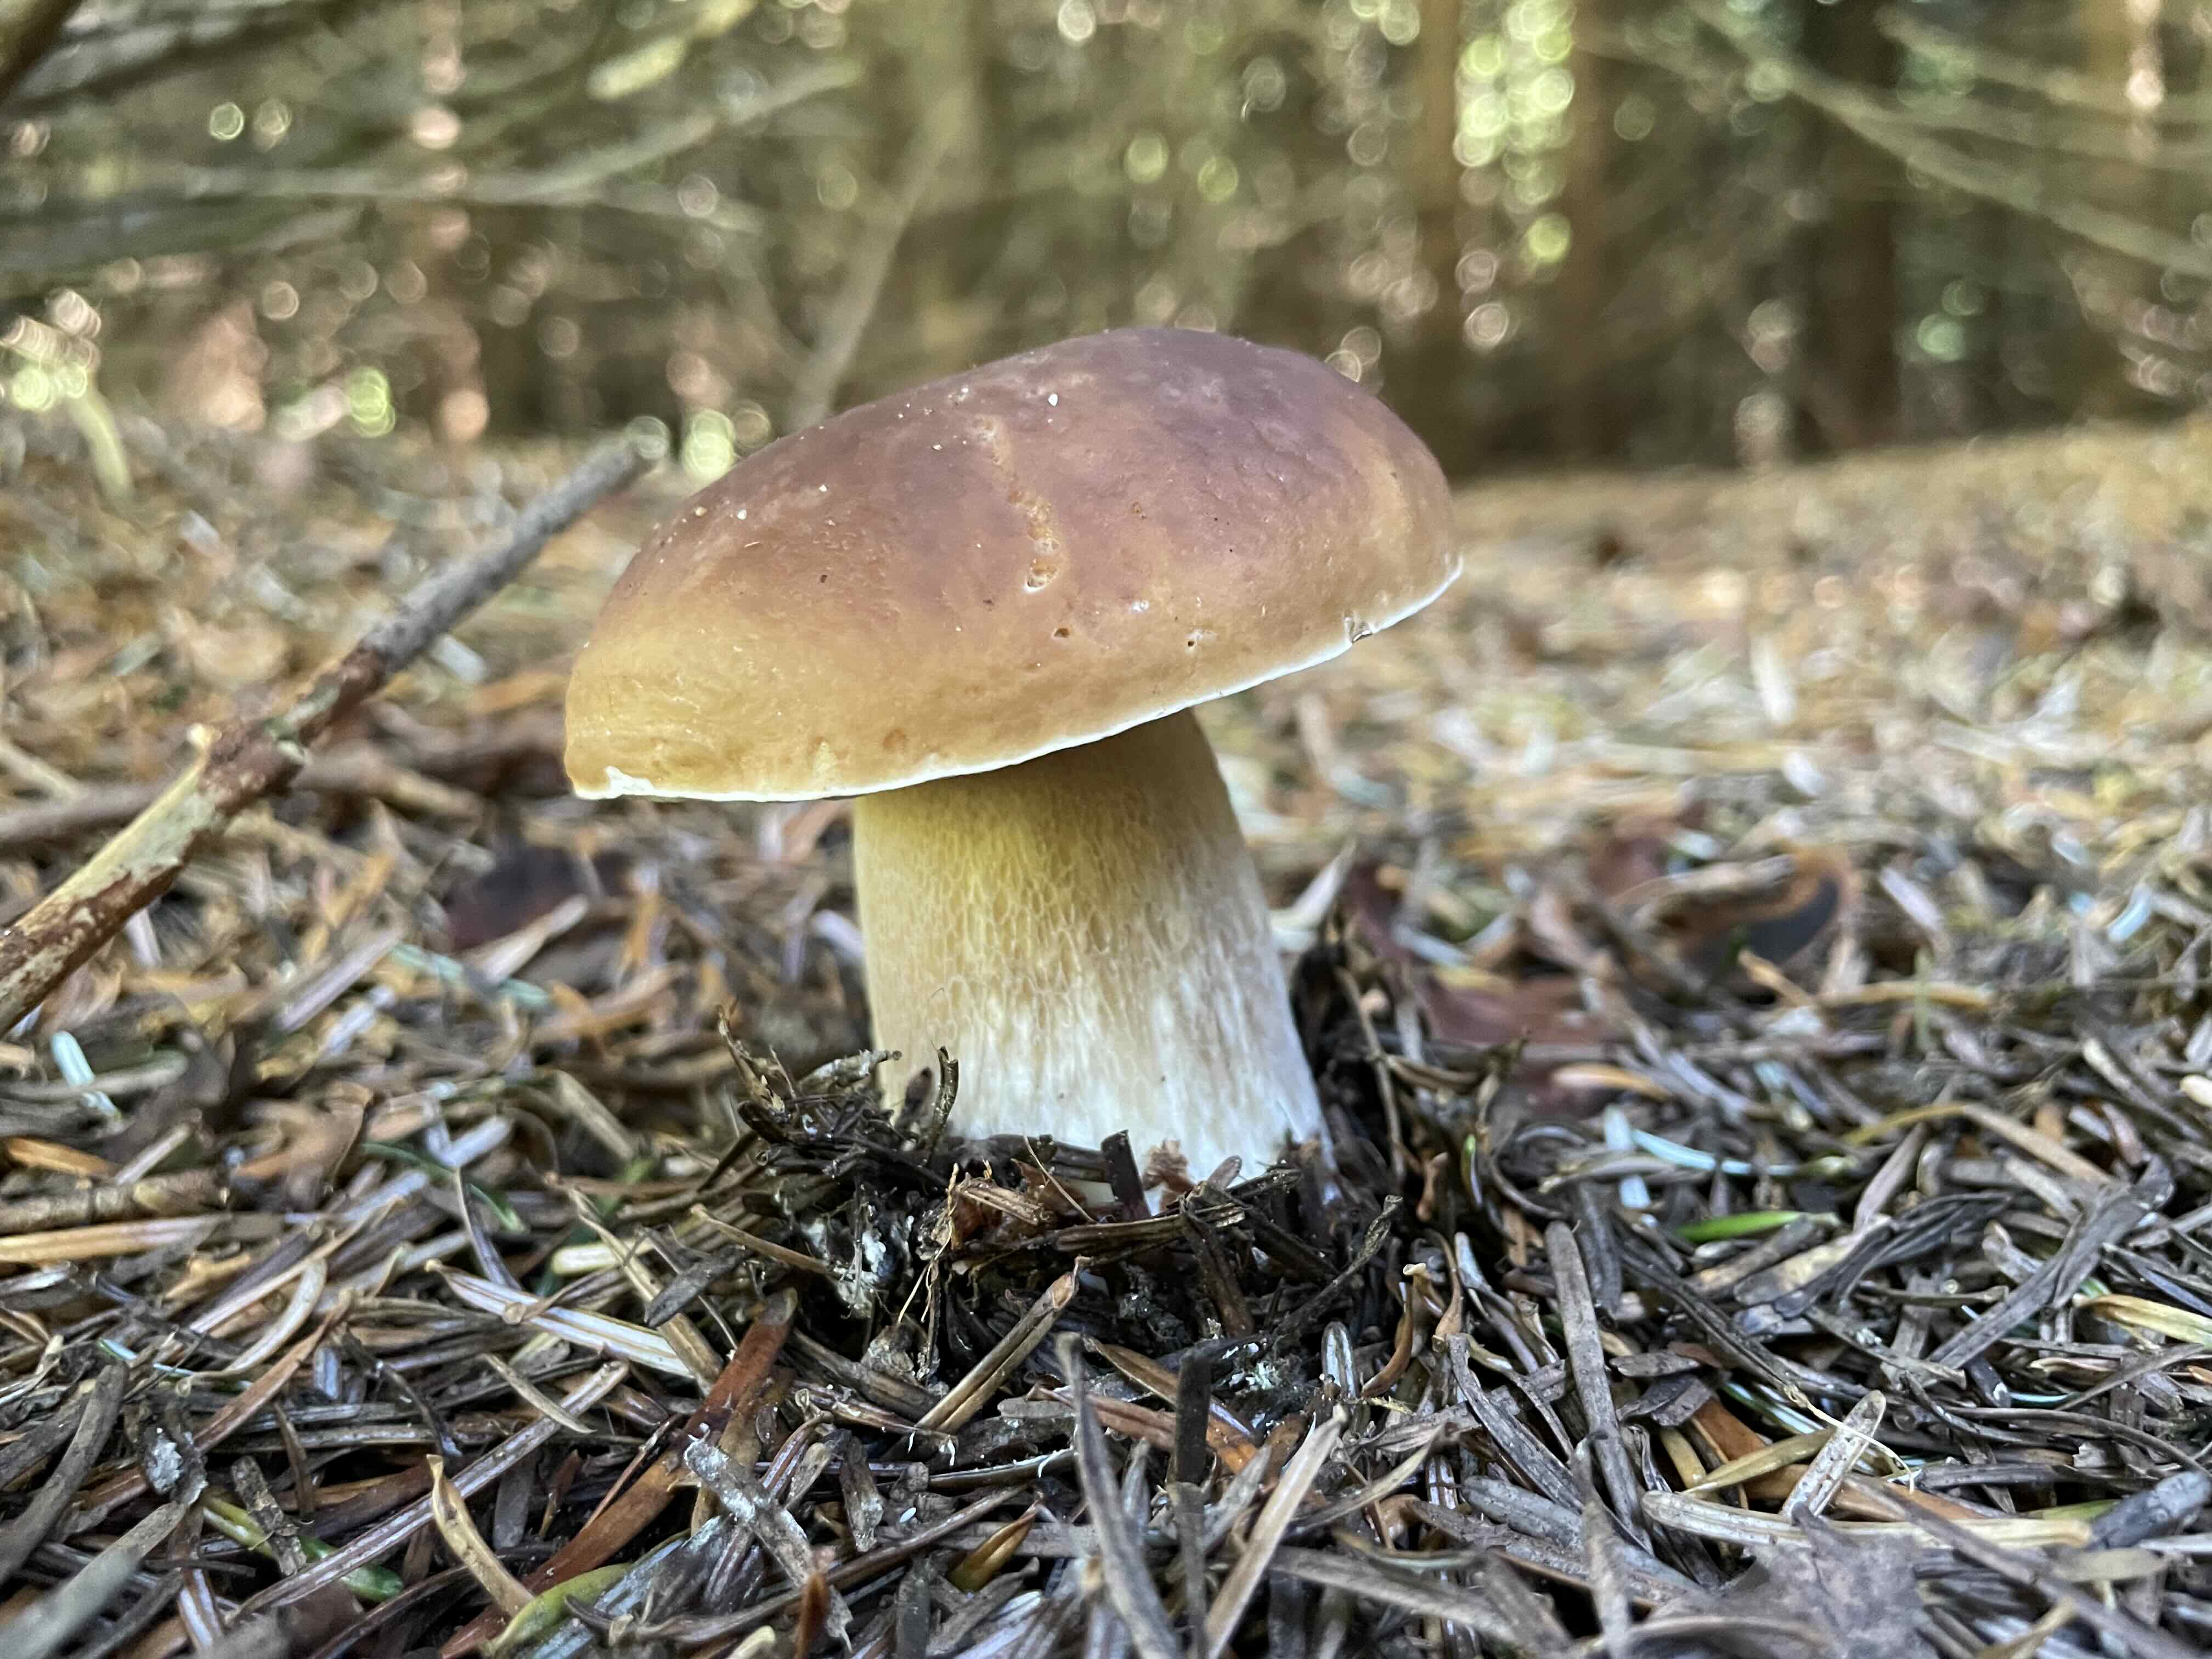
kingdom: Fungi
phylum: Basidiomycota
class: Agaricomycetes
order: Boletales
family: Boletaceae
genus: Boletus
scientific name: Boletus edulis
